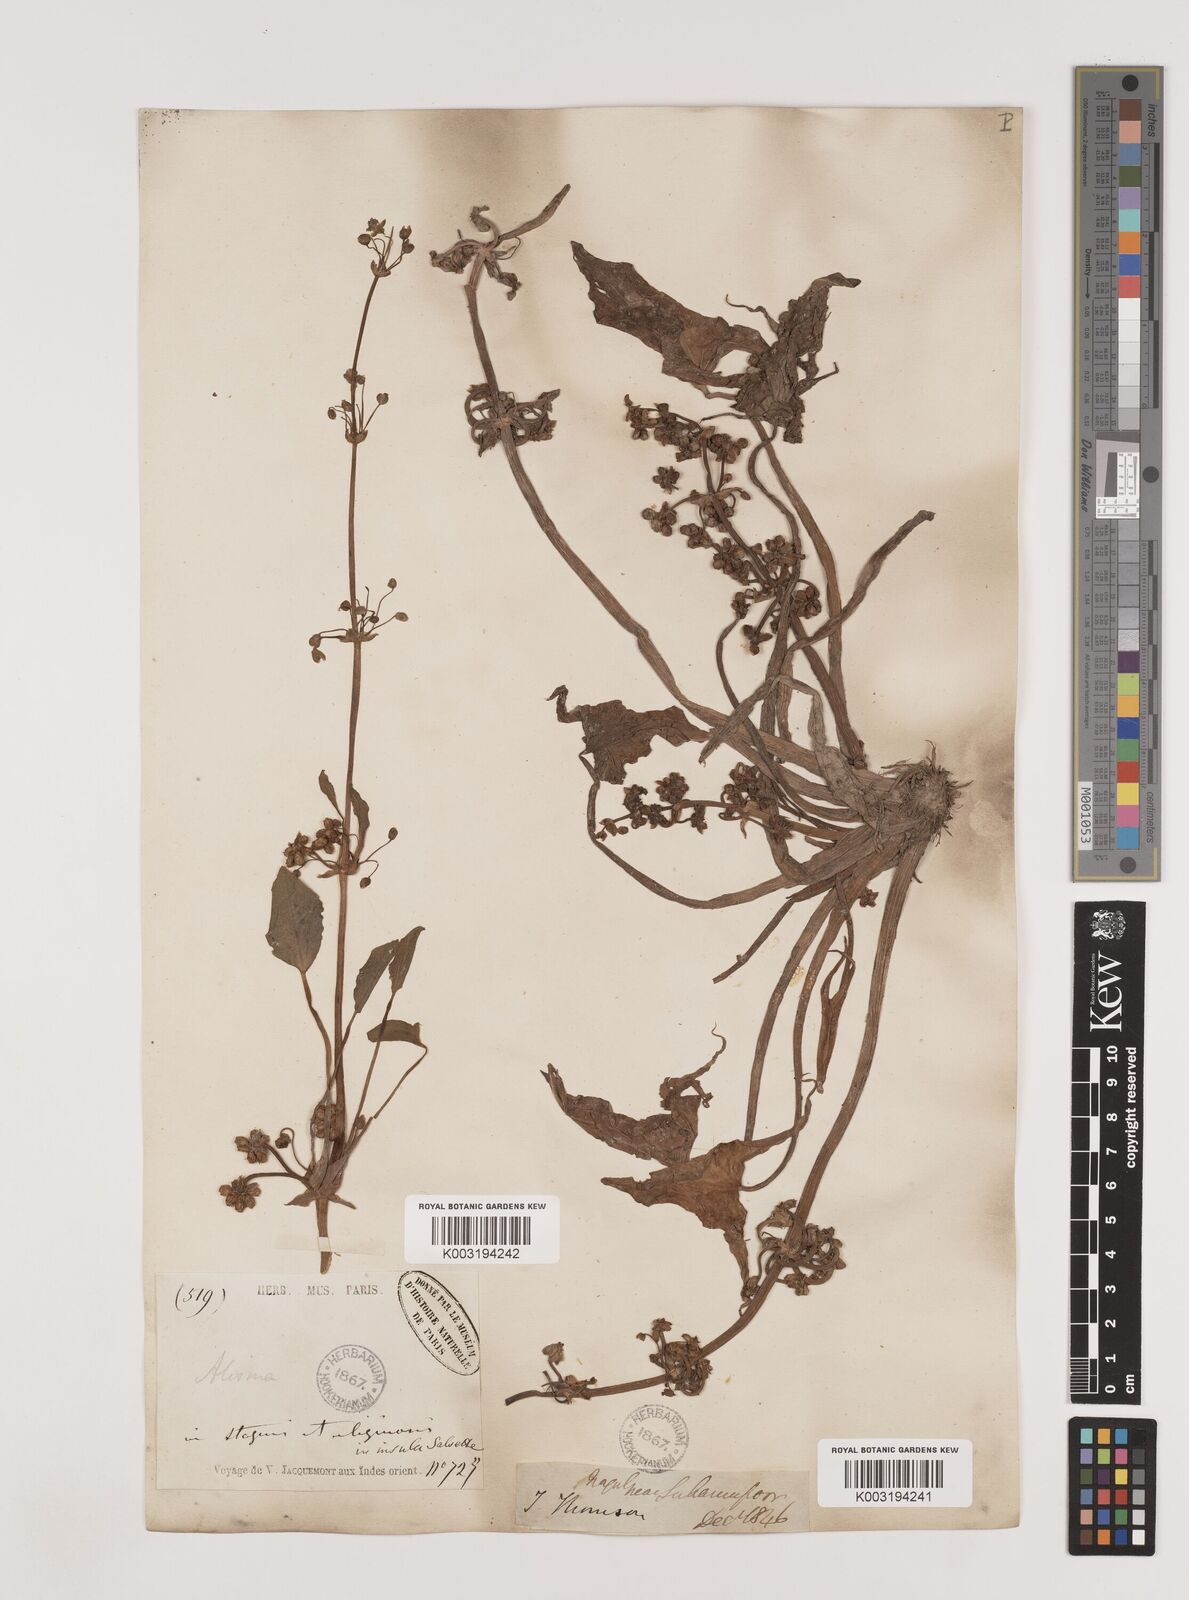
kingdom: Plantae
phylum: Tracheophyta
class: Liliopsida
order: Alismatales
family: Alismataceae
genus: Limnophyton
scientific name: Limnophyton obtusifolium
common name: Arrow head
